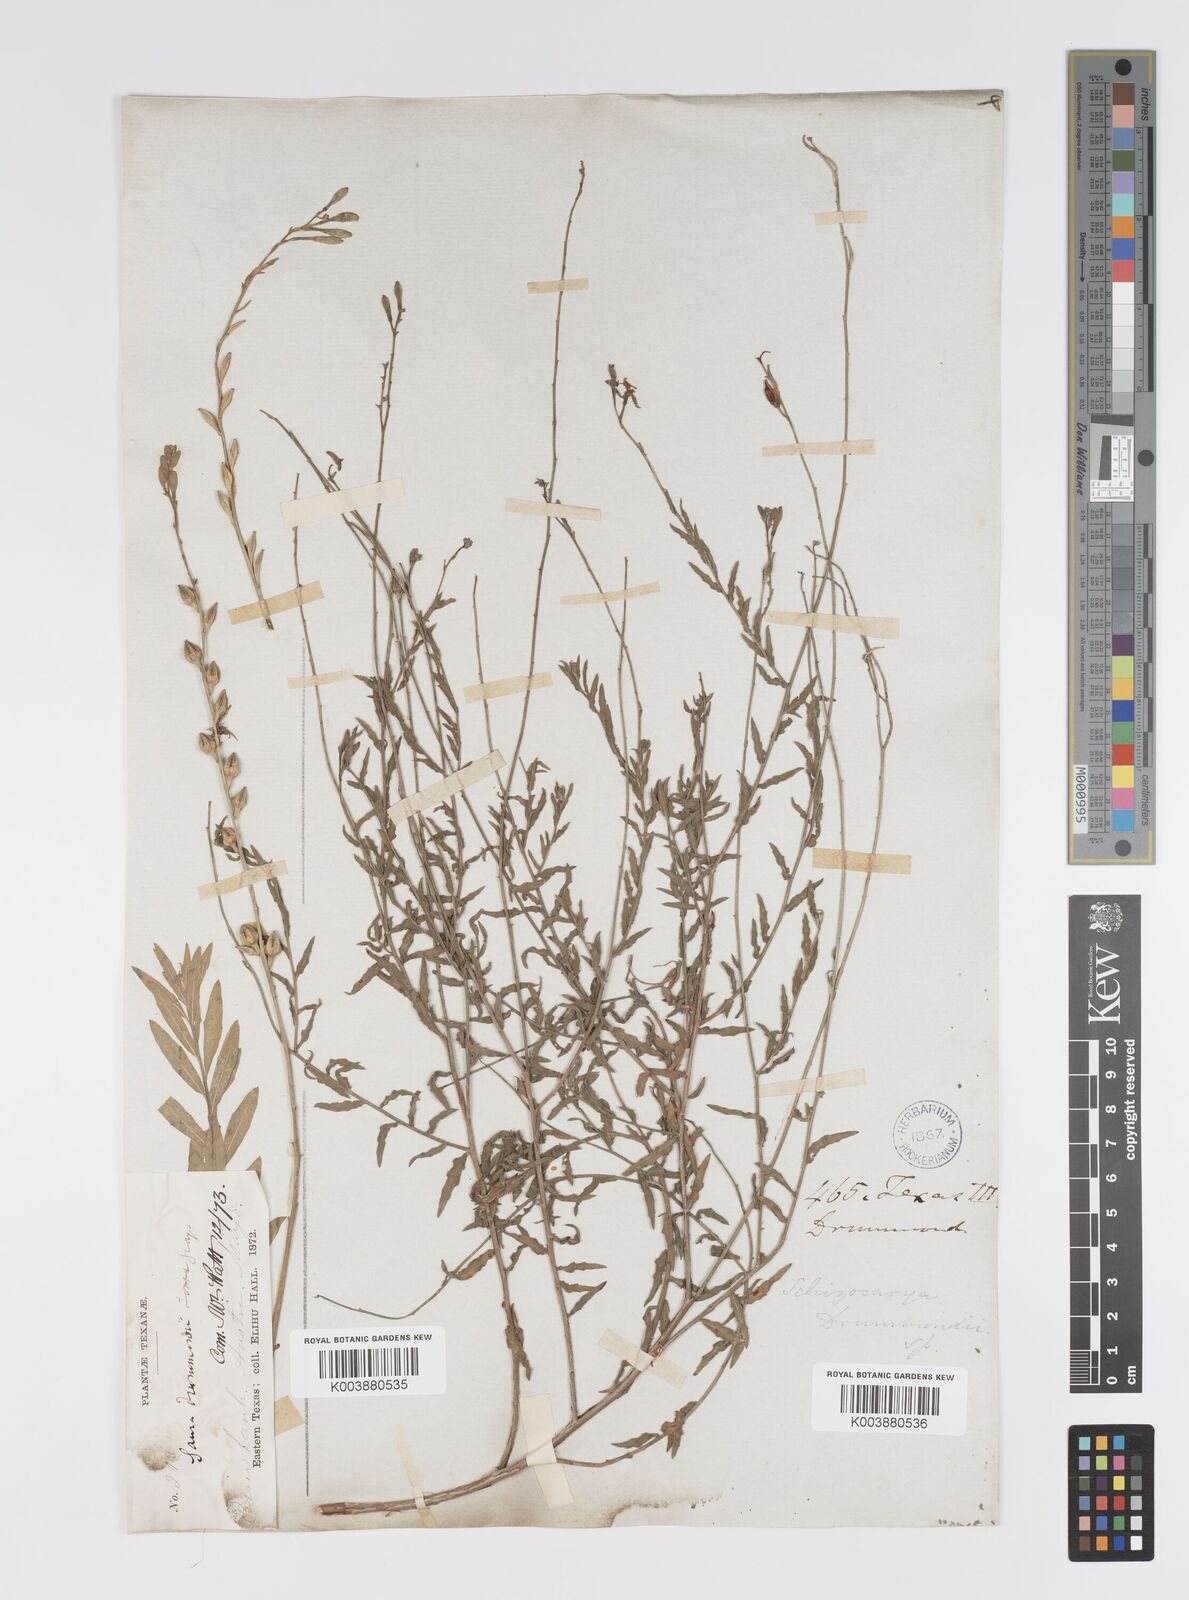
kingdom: Plantae
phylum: Tracheophyta
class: Magnoliopsida
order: Myrtales
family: Onagraceae
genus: Oenothera
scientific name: Oenothera hispida
